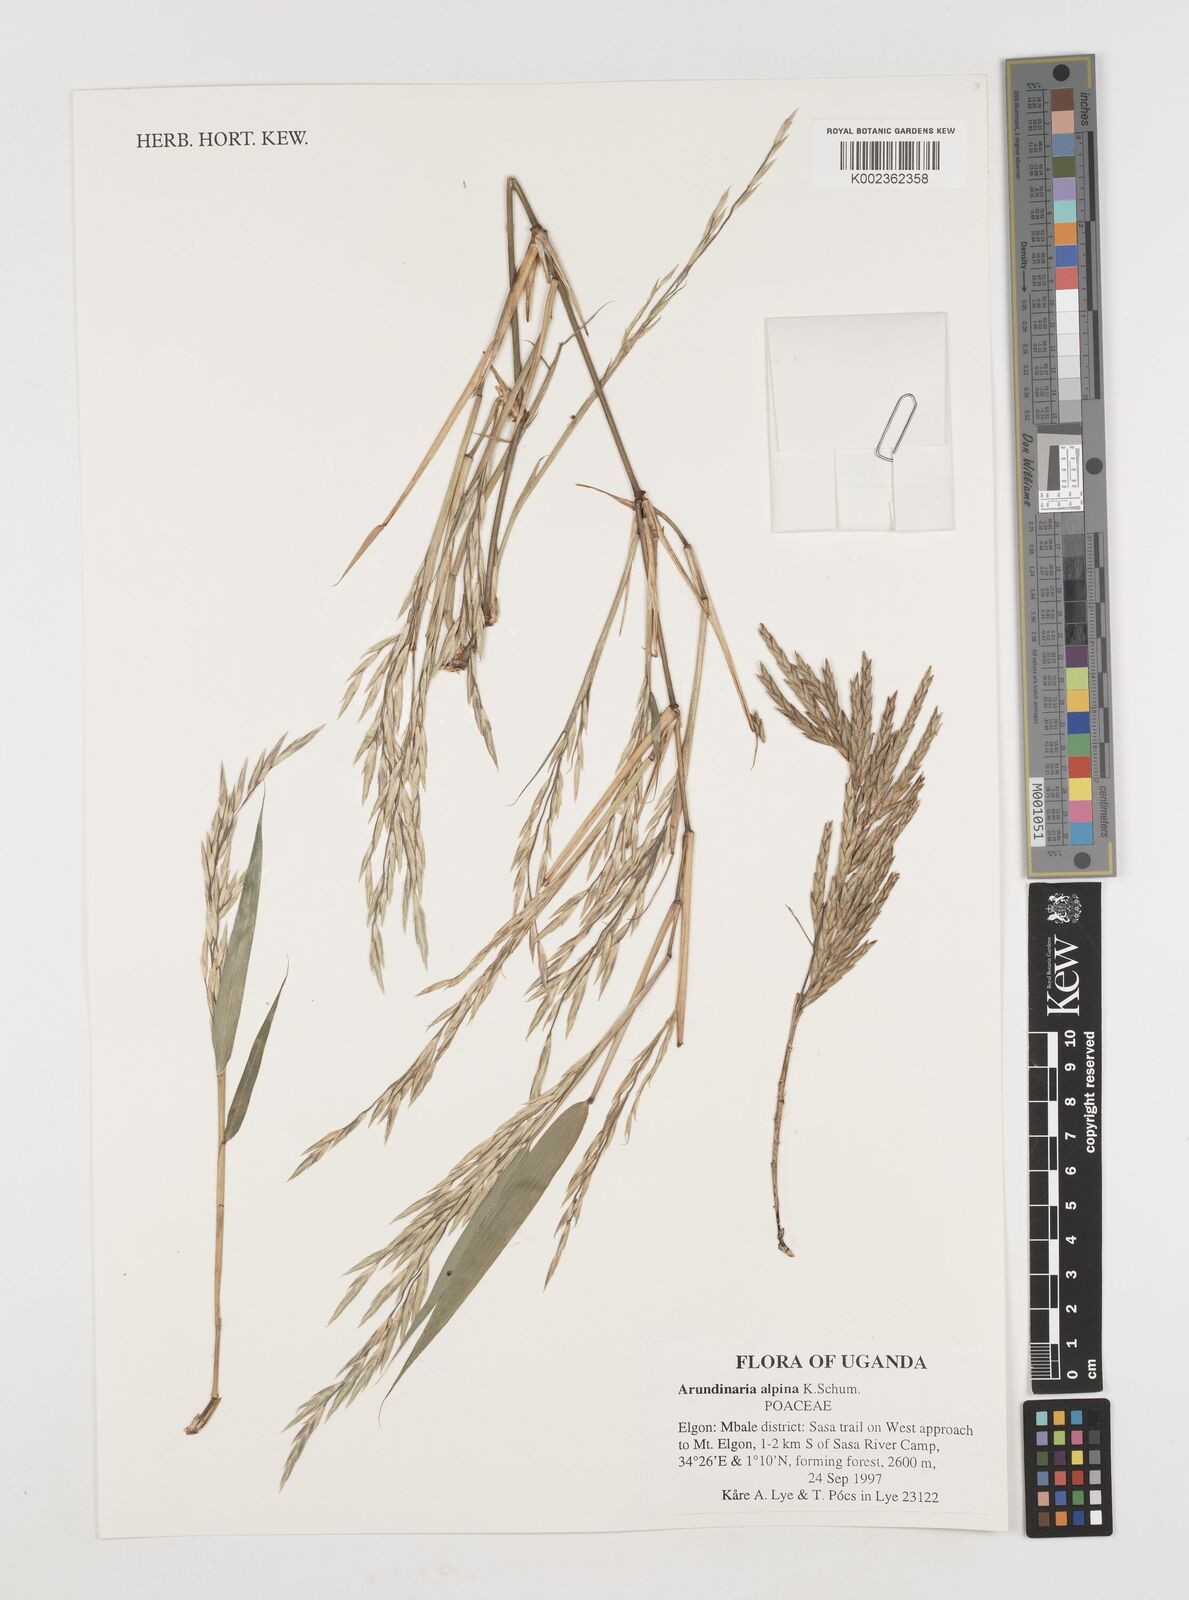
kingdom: Plantae
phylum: Tracheophyta
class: Liliopsida
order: Poales
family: Poaceae
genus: Oldeania
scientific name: Oldeania alpina
